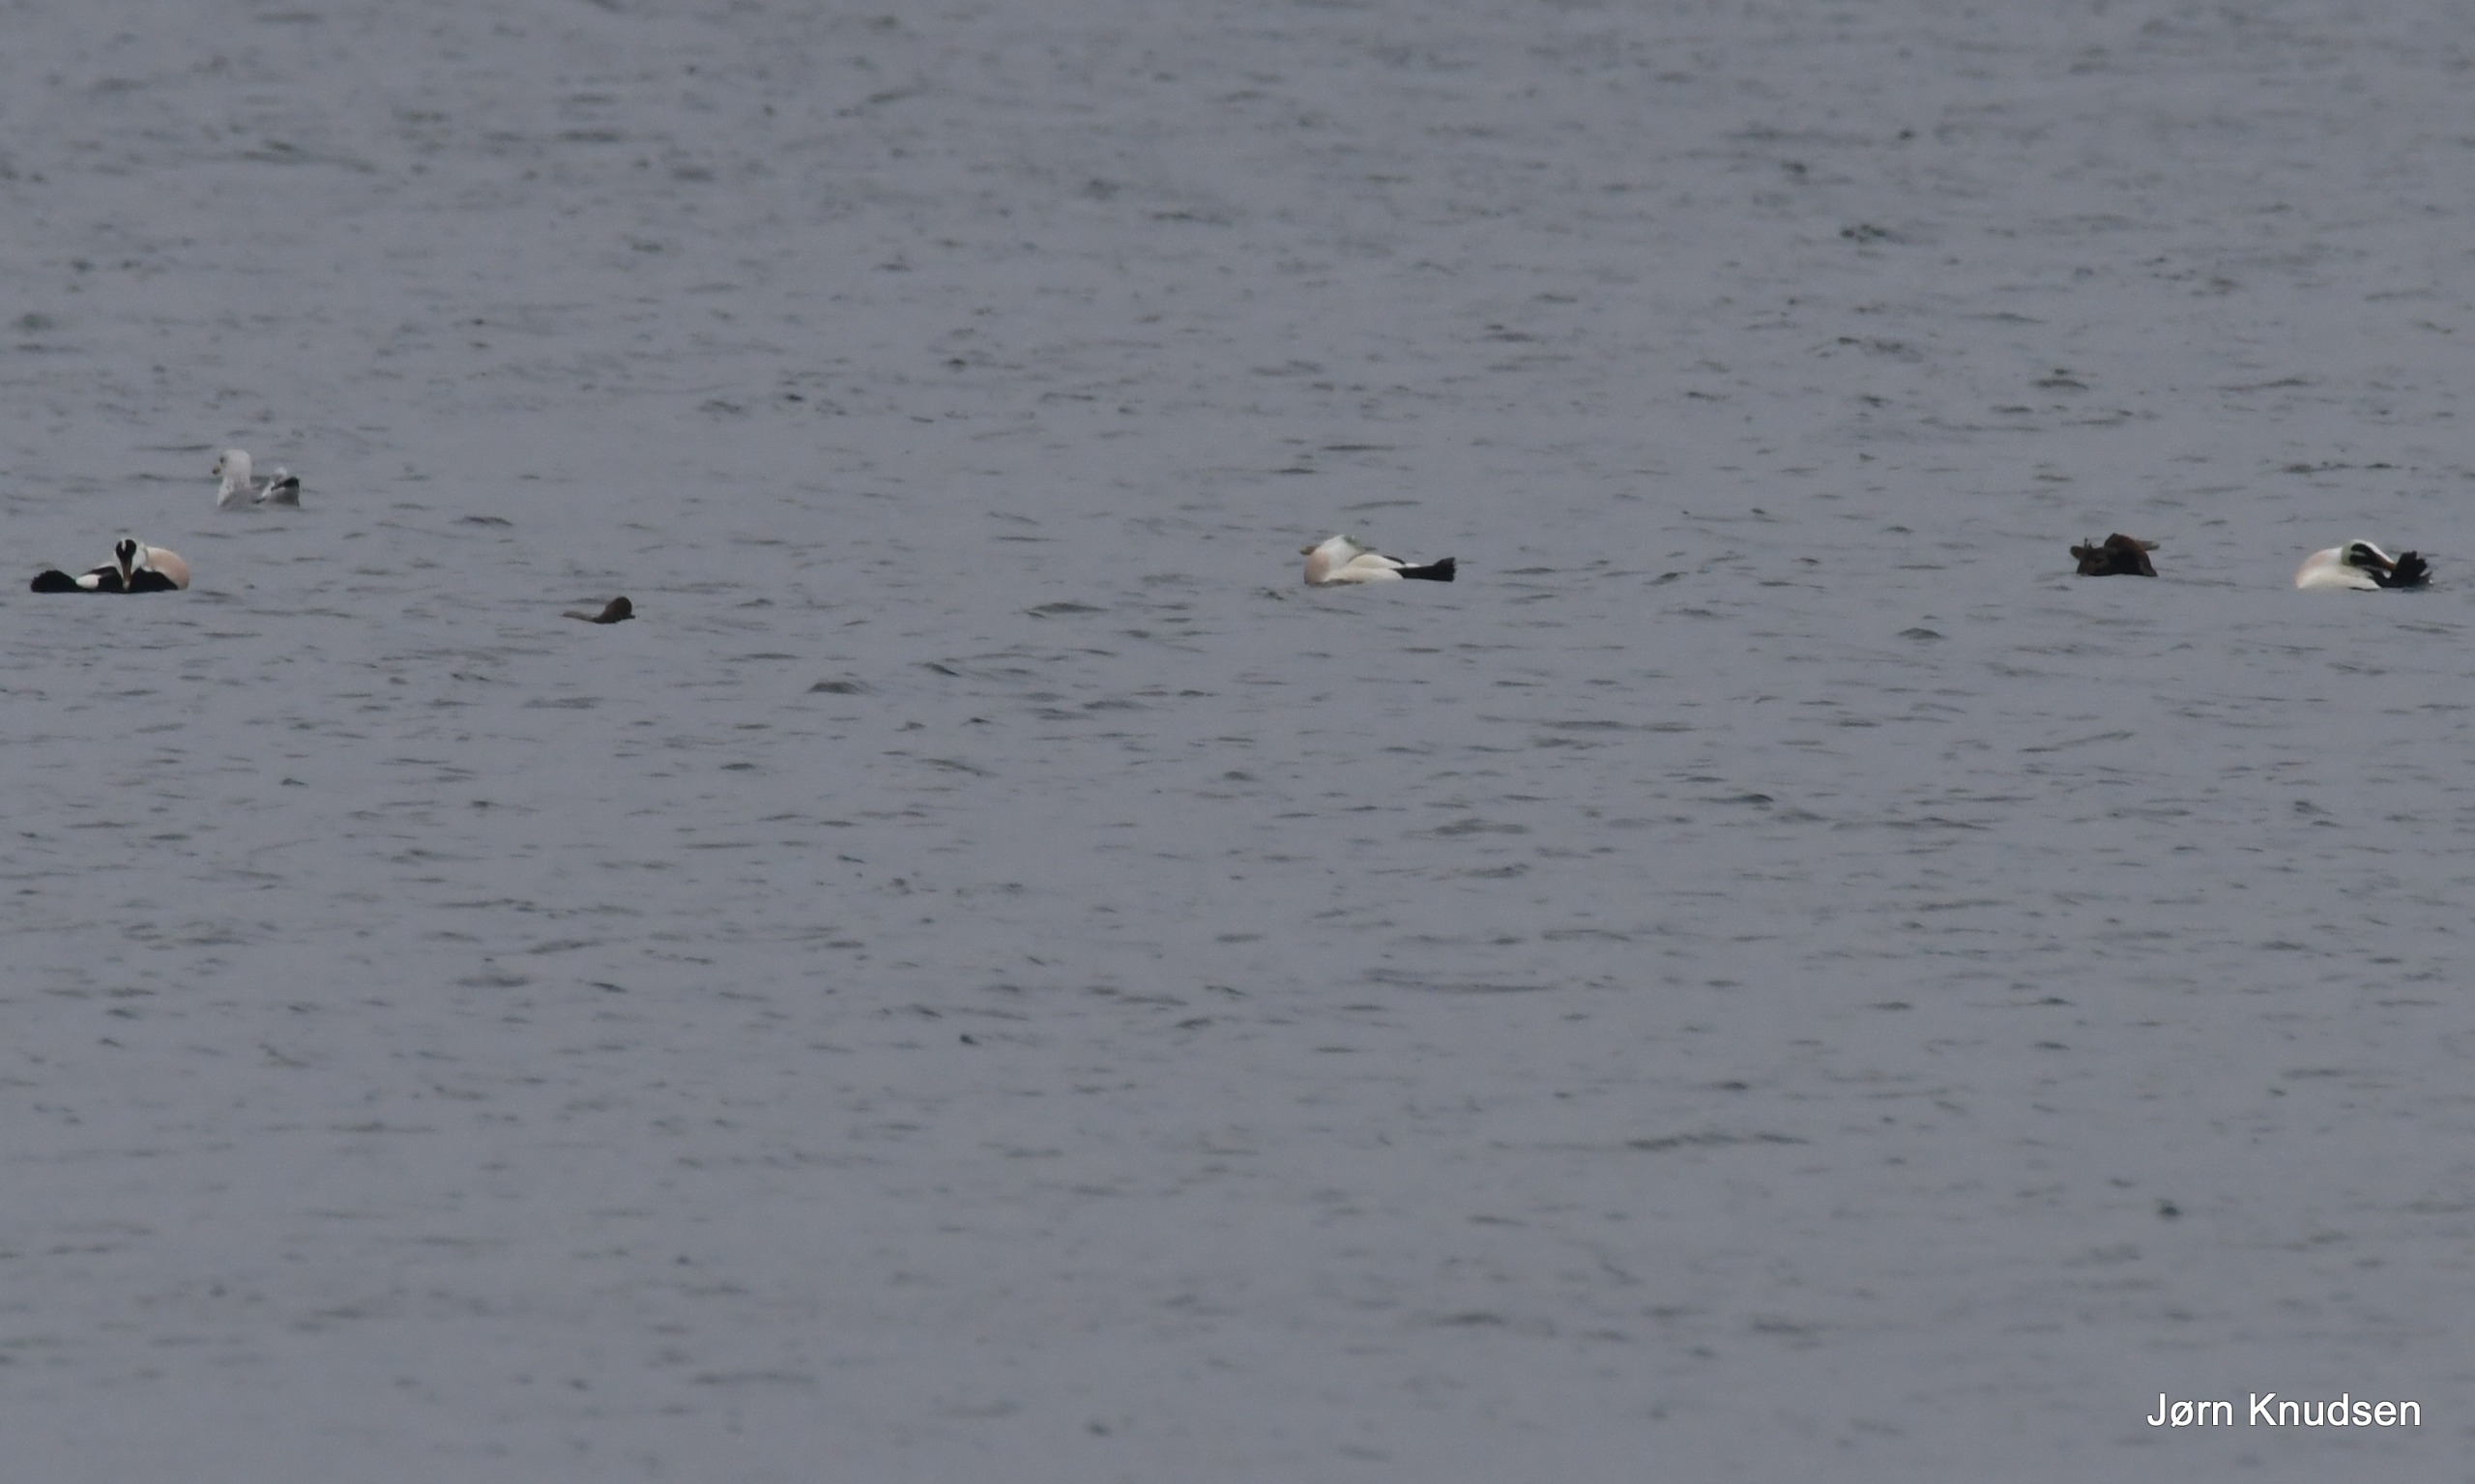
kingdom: Animalia
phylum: Chordata
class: Aves
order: Anseriformes
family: Anatidae
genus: Somateria
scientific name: Somateria mollissima
